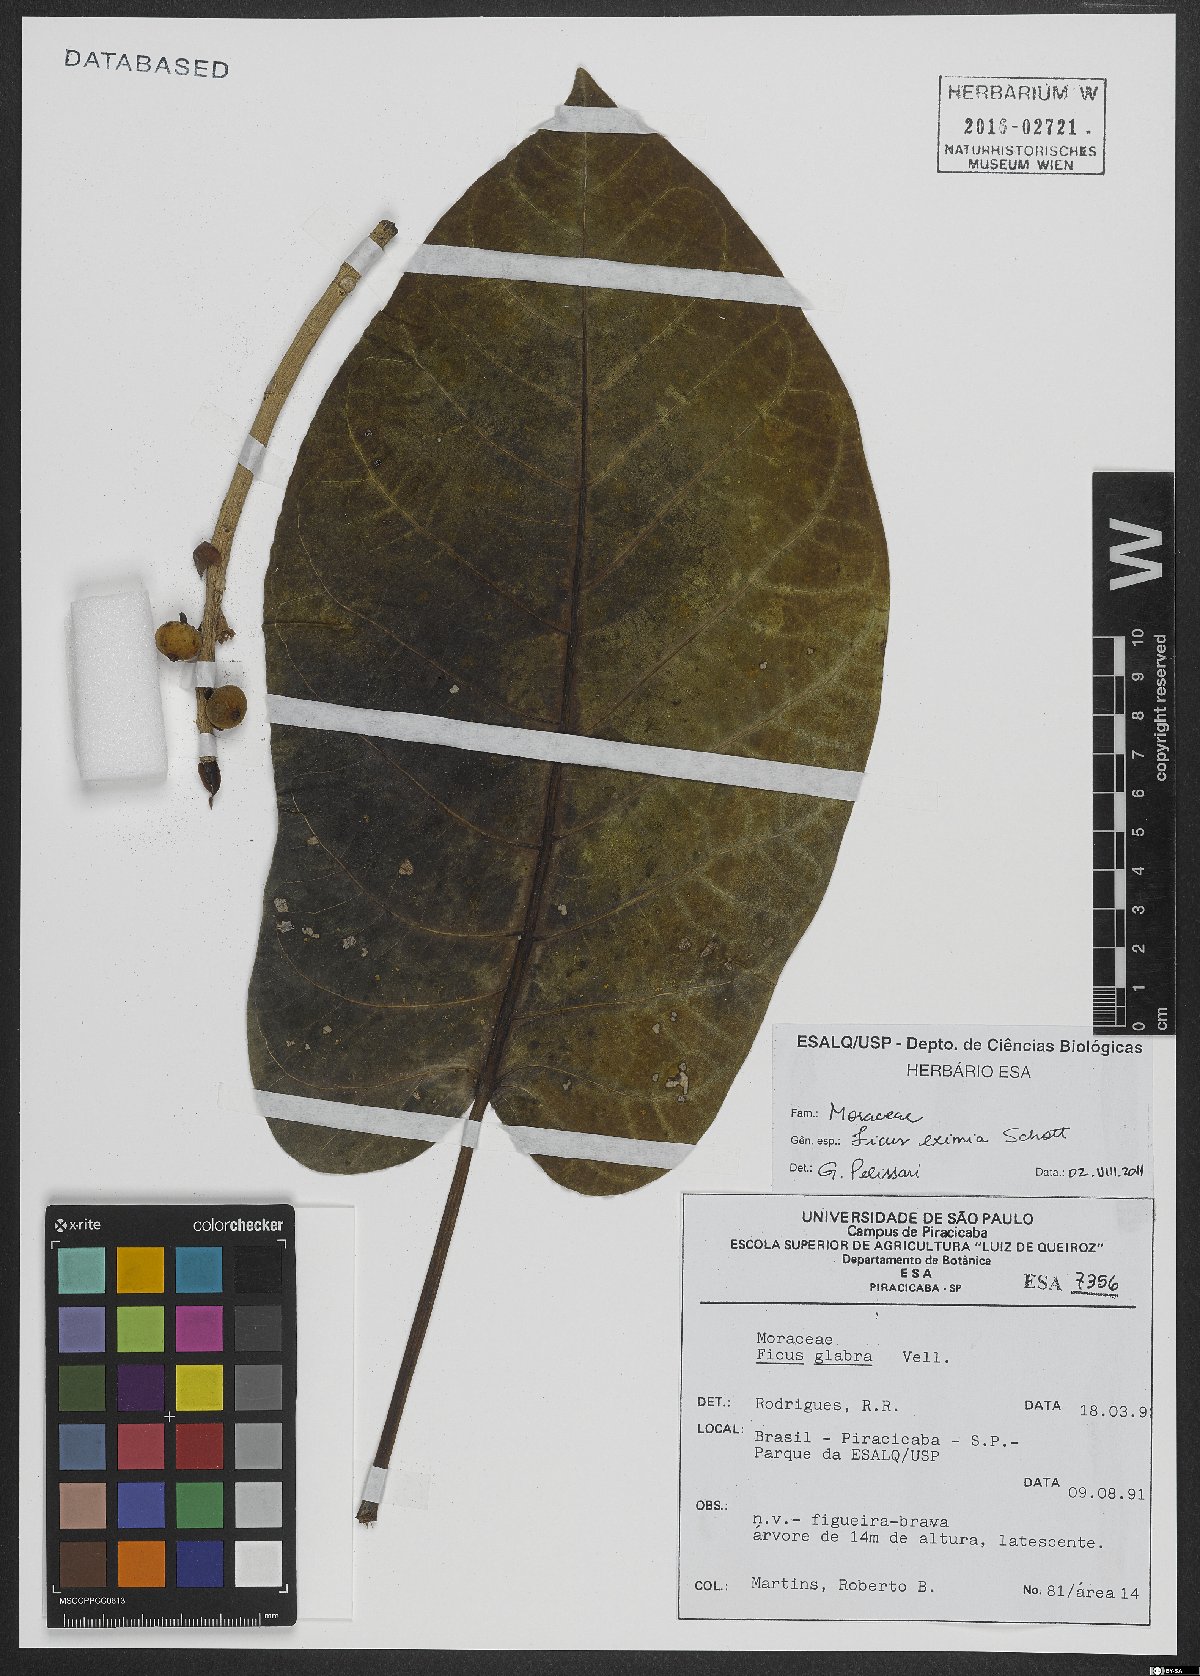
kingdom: Plantae
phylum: Tracheophyta
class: Magnoliopsida
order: Rosales
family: Moraceae
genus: Ficus
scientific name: Ficus eximia
